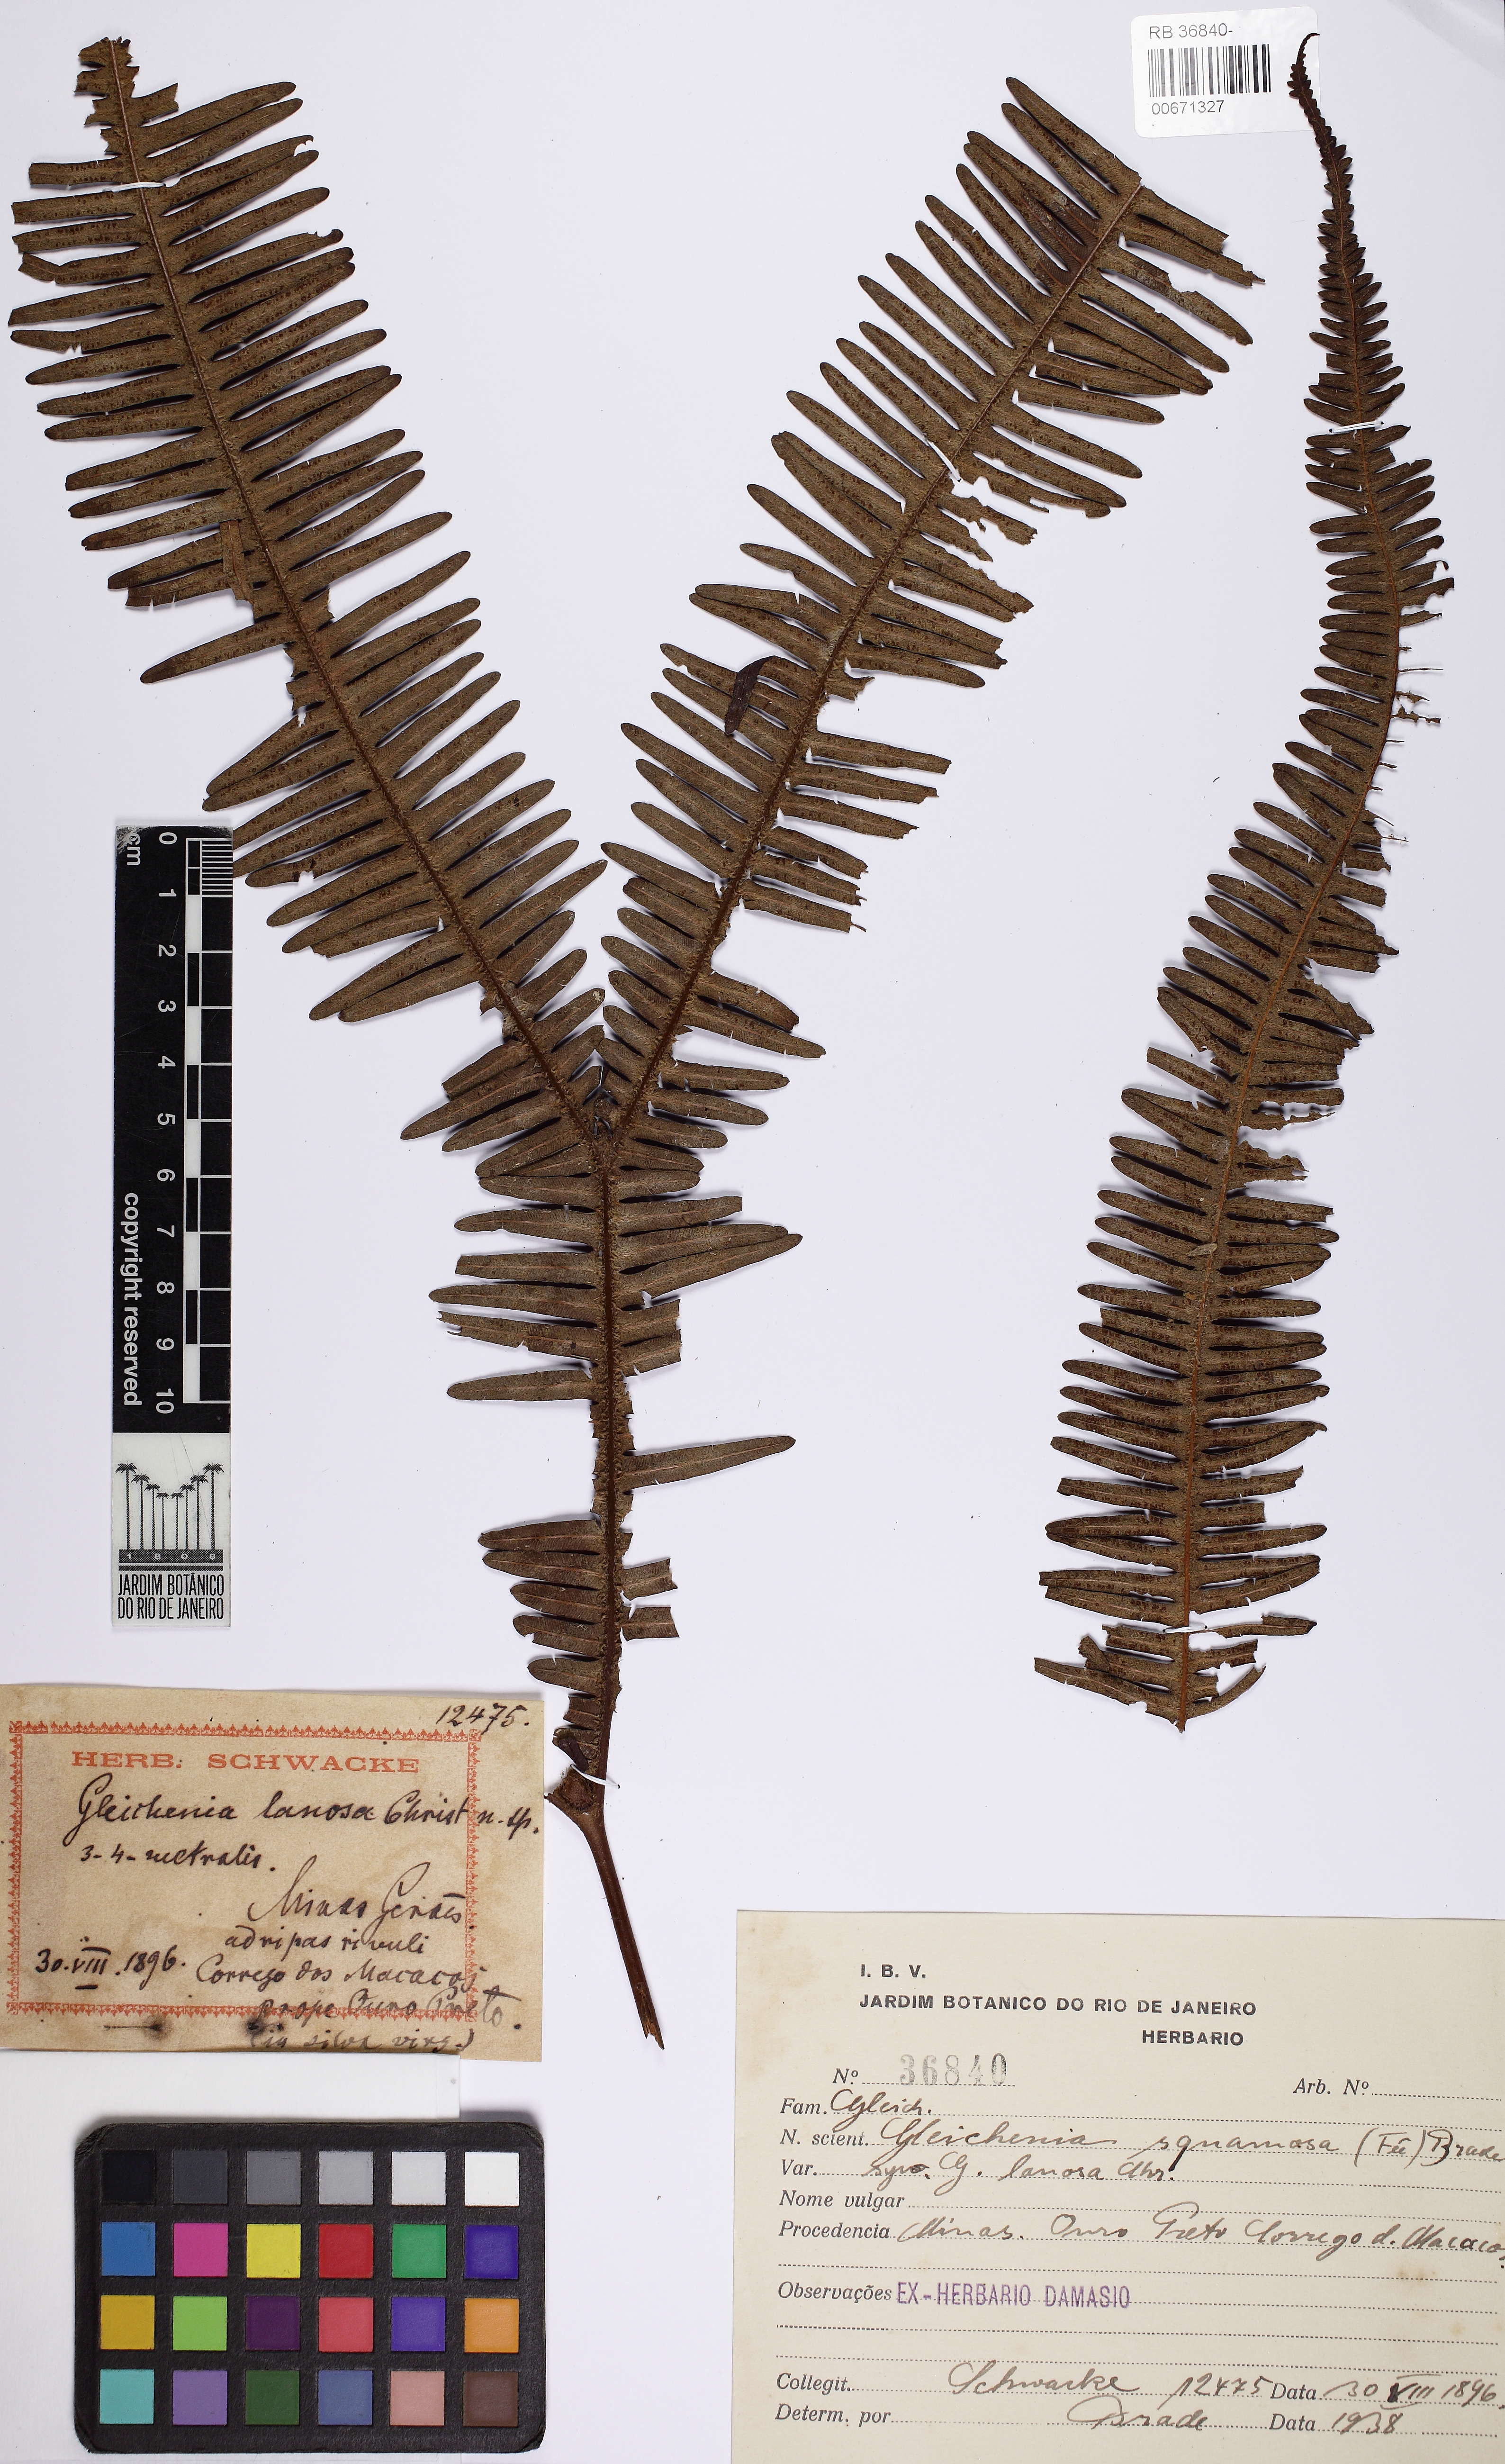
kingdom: Plantae
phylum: Tracheophyta
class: Polypodiopsida
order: Gleicheniales
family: Gleicheniaceae
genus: Sticherus
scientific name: Sticherus squamosus
